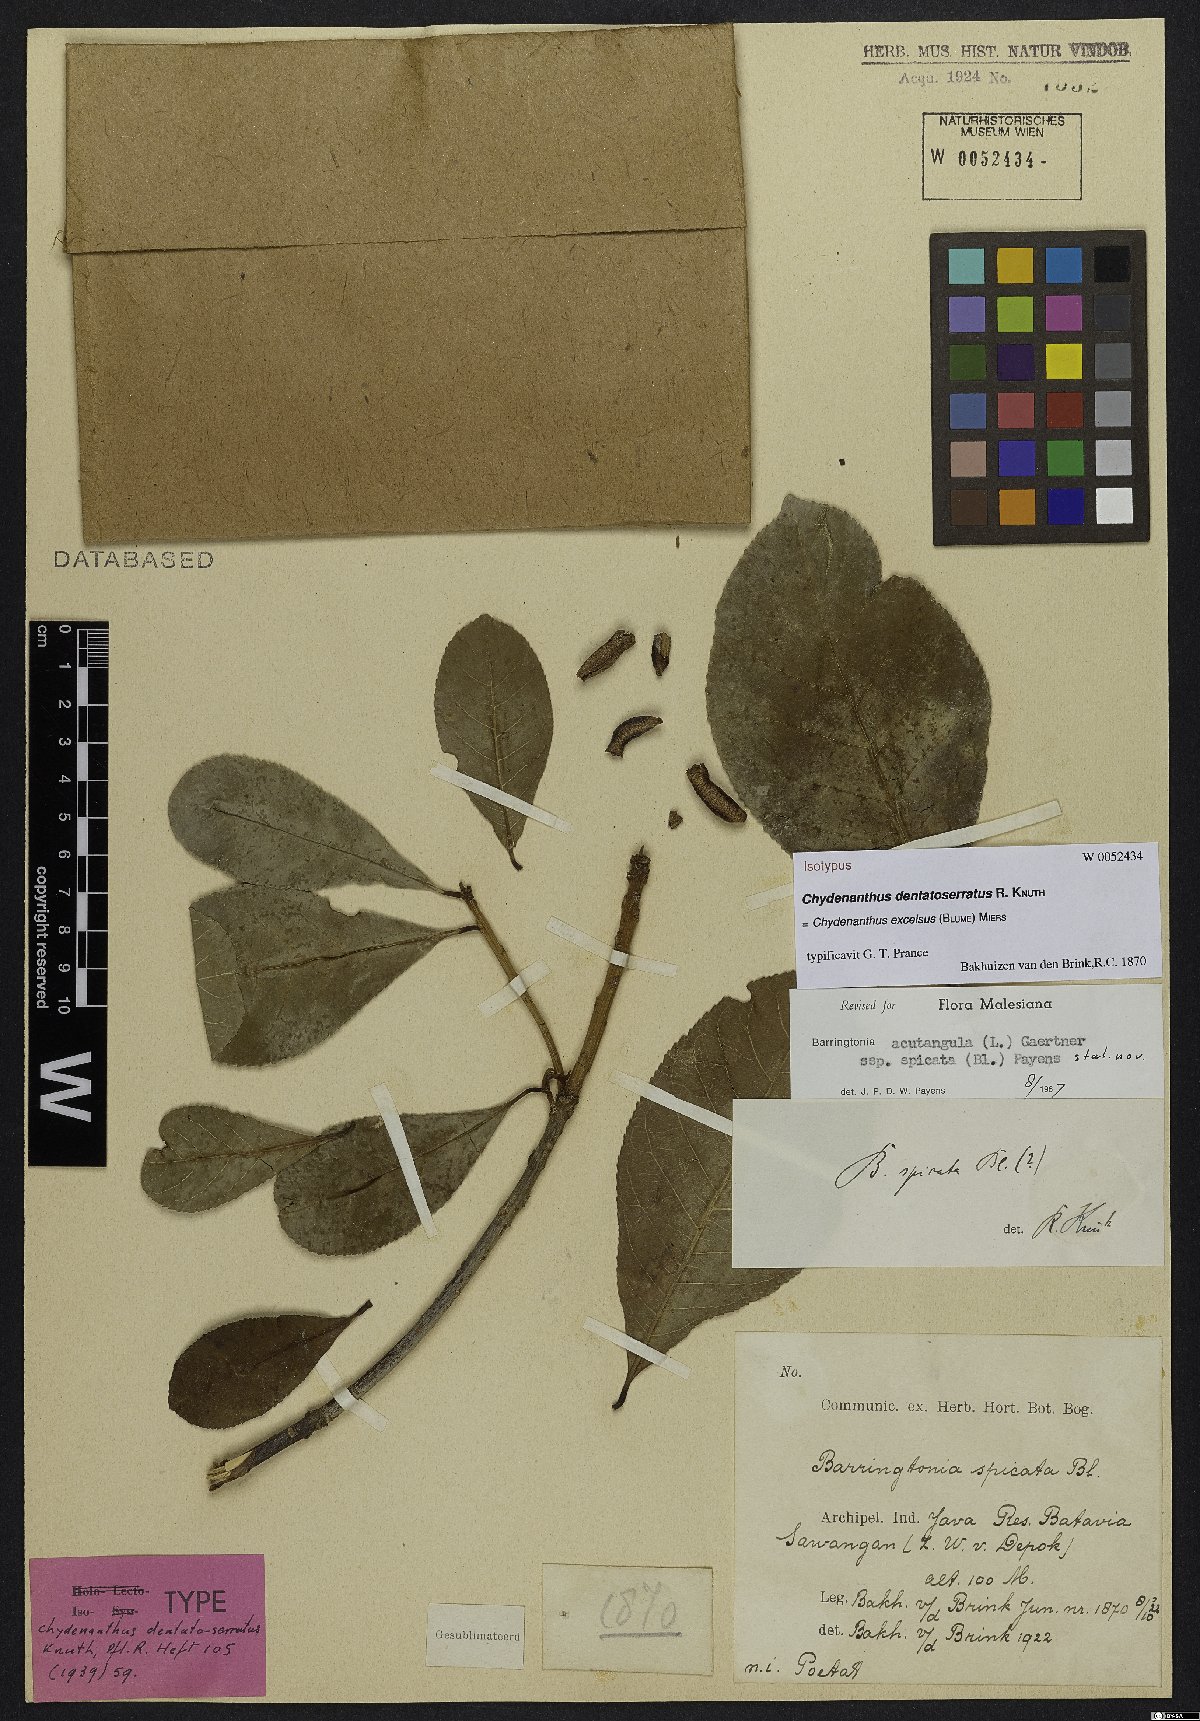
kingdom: Plantae
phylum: Tracheophyta
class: Magnoliopsida
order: Ericales
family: Lecythidaceae
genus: Chydenanthus
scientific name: Chydenanthus excelsus
